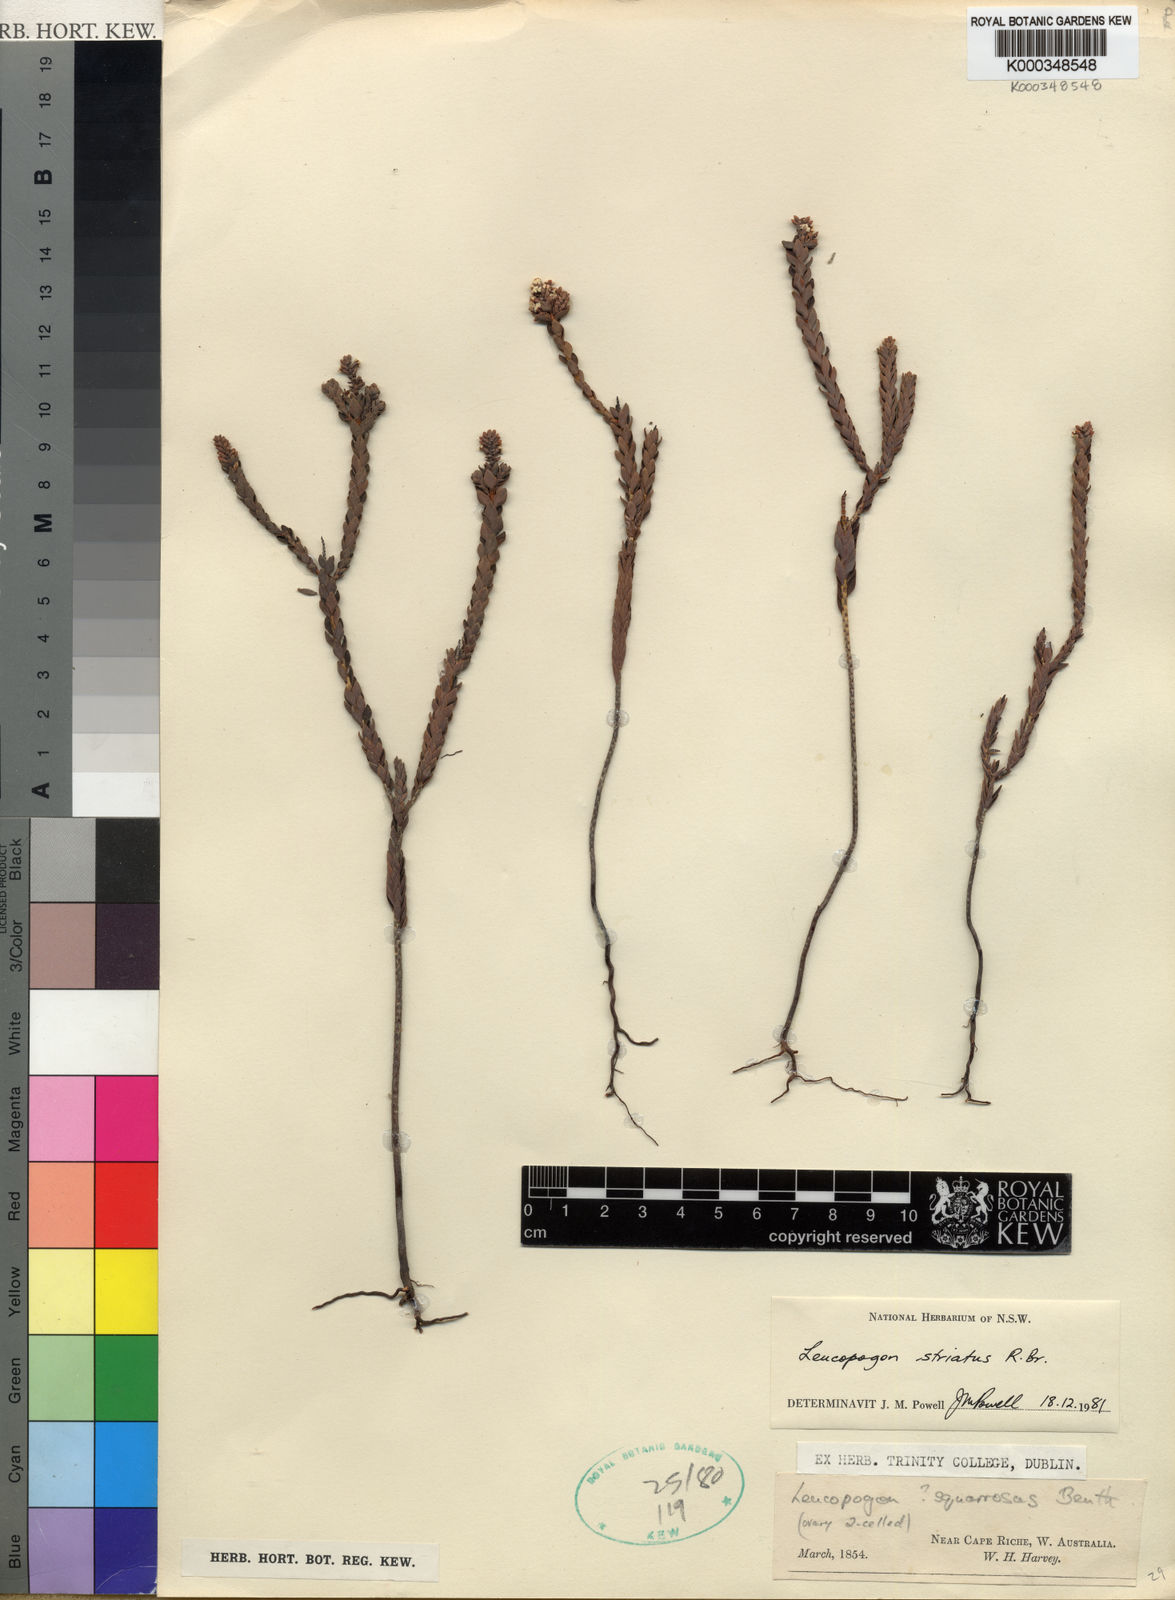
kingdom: Plantae
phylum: Tracheophyta
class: Magnoliopsida
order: Ericales
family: Ericaceae
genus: Styphelia
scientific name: Styphelia striata
